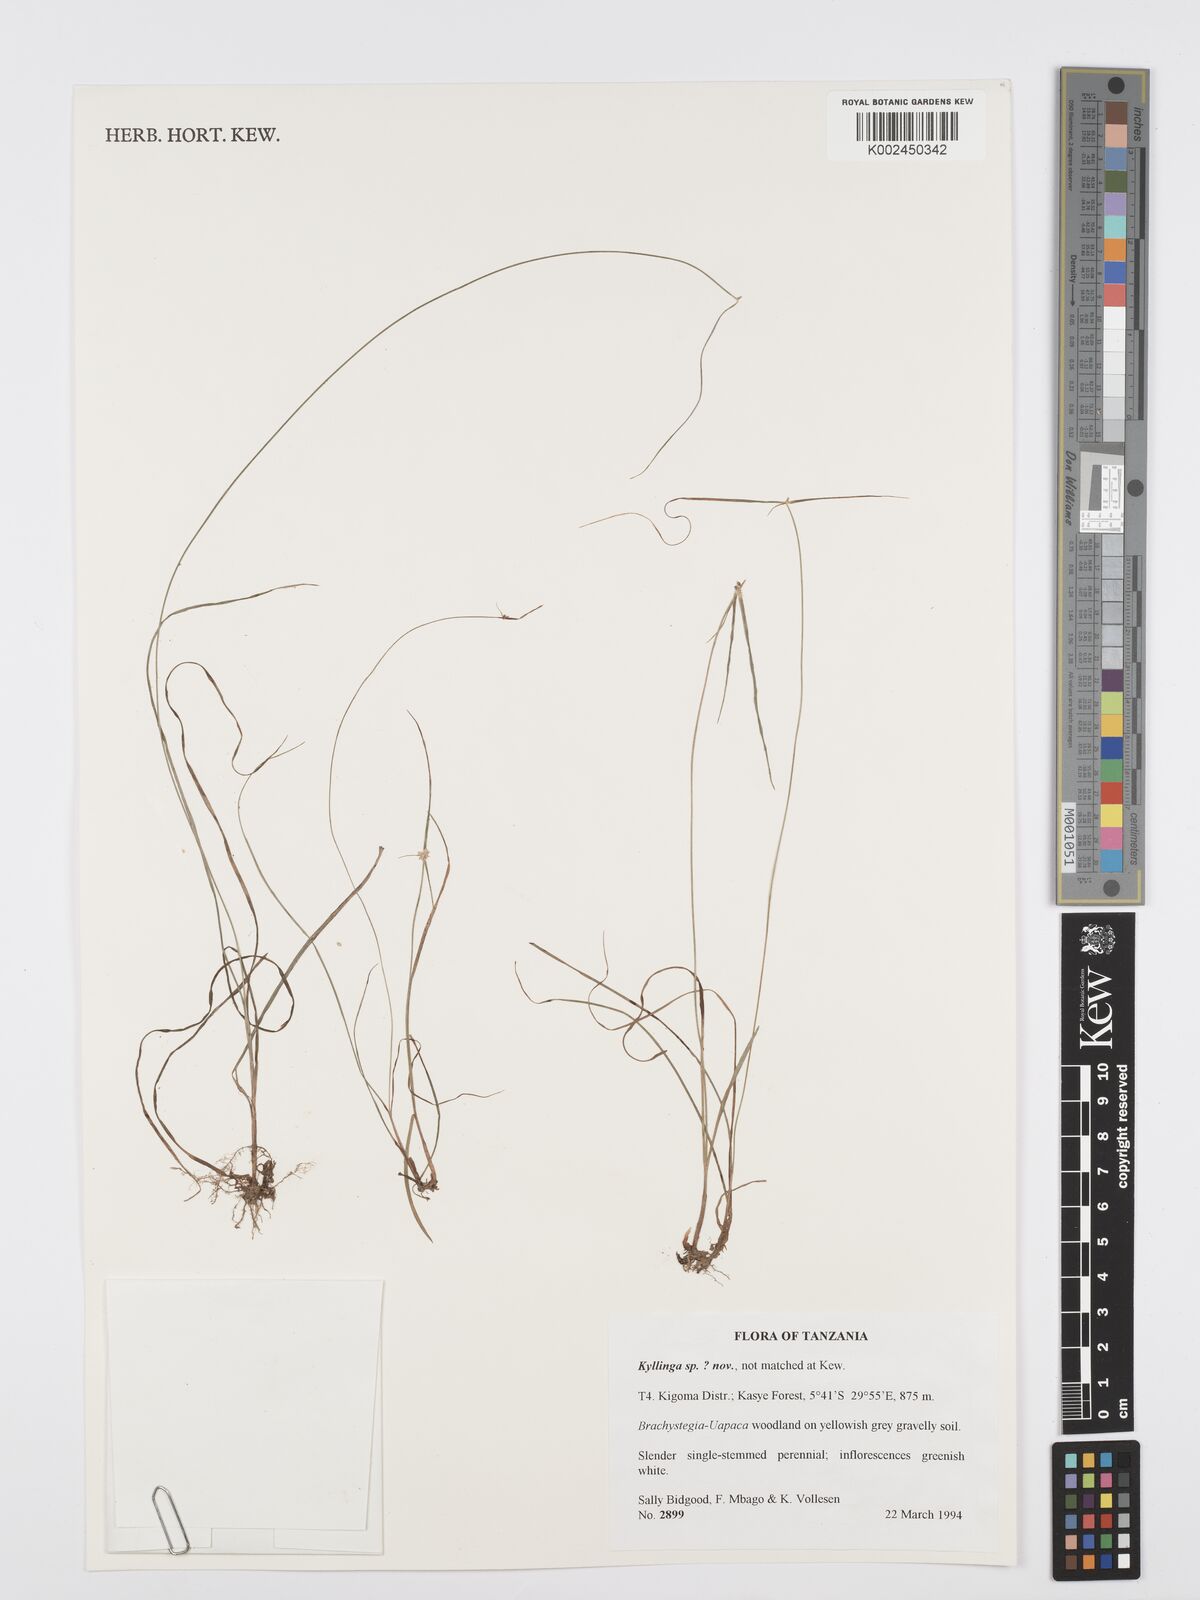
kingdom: Plantae
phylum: Tracheophyta
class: Liliopsida
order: Poales
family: Cyperaceae
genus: Cyperus
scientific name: Cyperus
